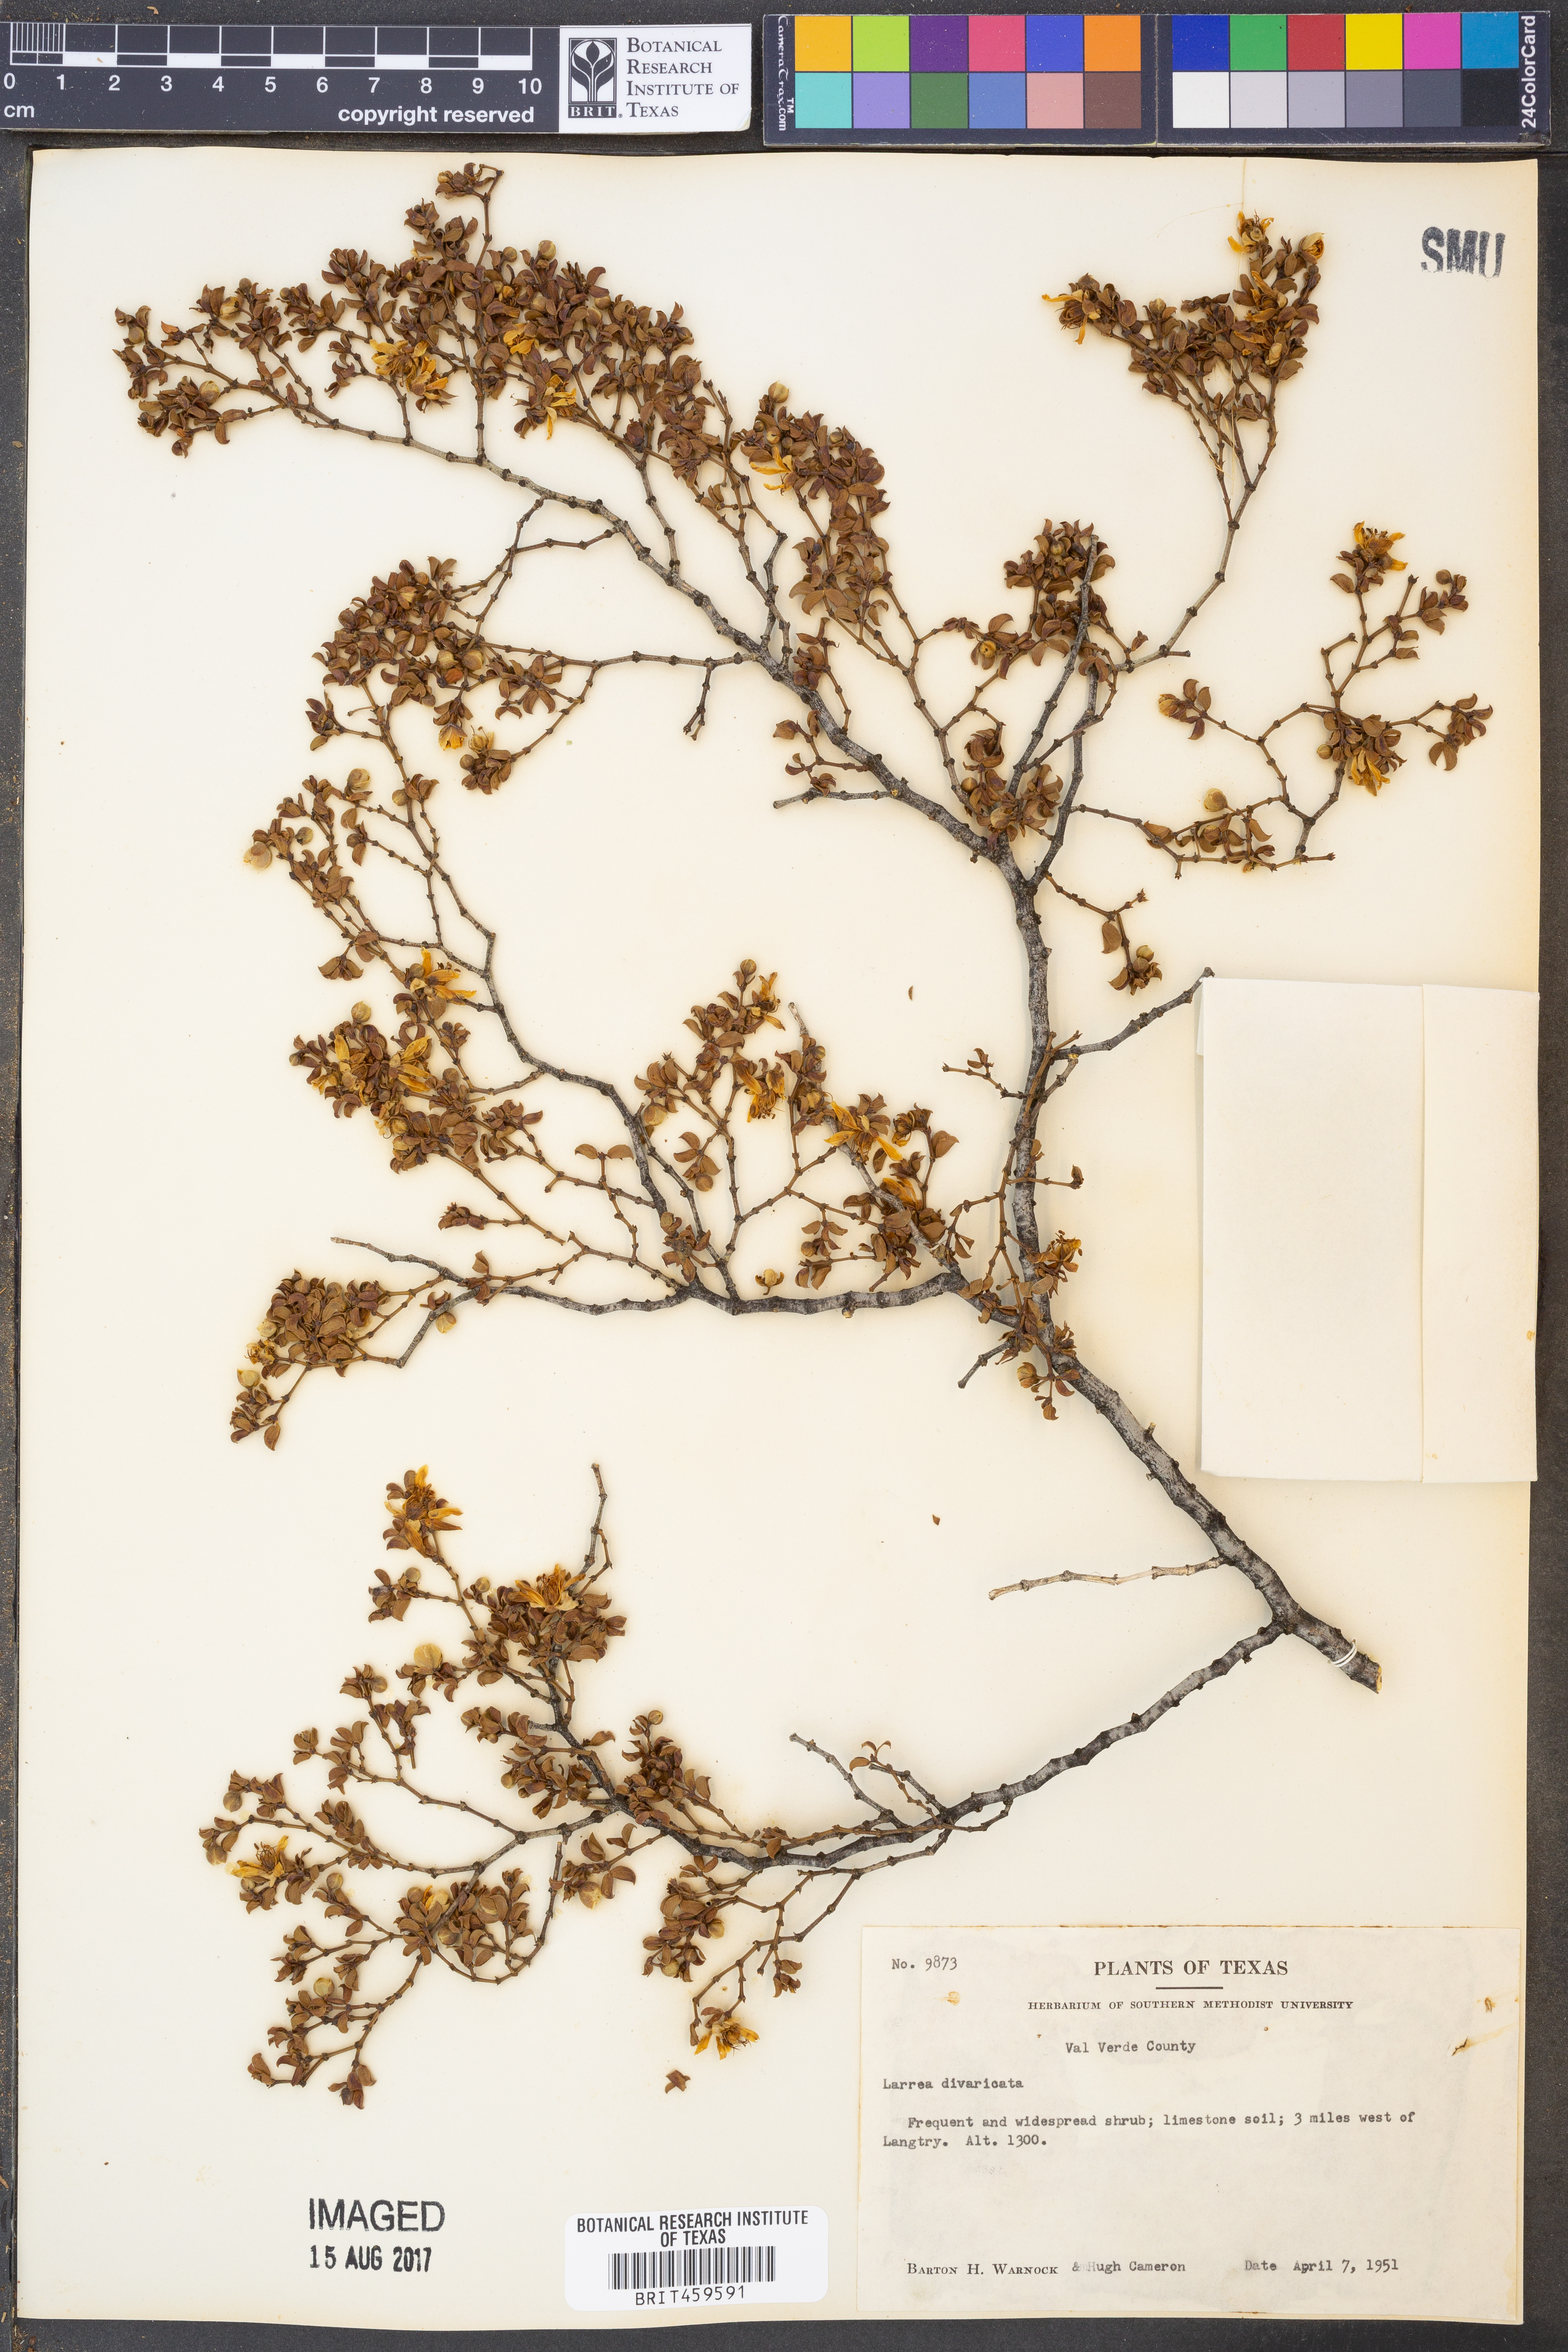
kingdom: Plantae
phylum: Tracheophyta
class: Magnoliopsida
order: Zygophyllales
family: Zygophyllaceae
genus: Larrea
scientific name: Larrea divaricata
